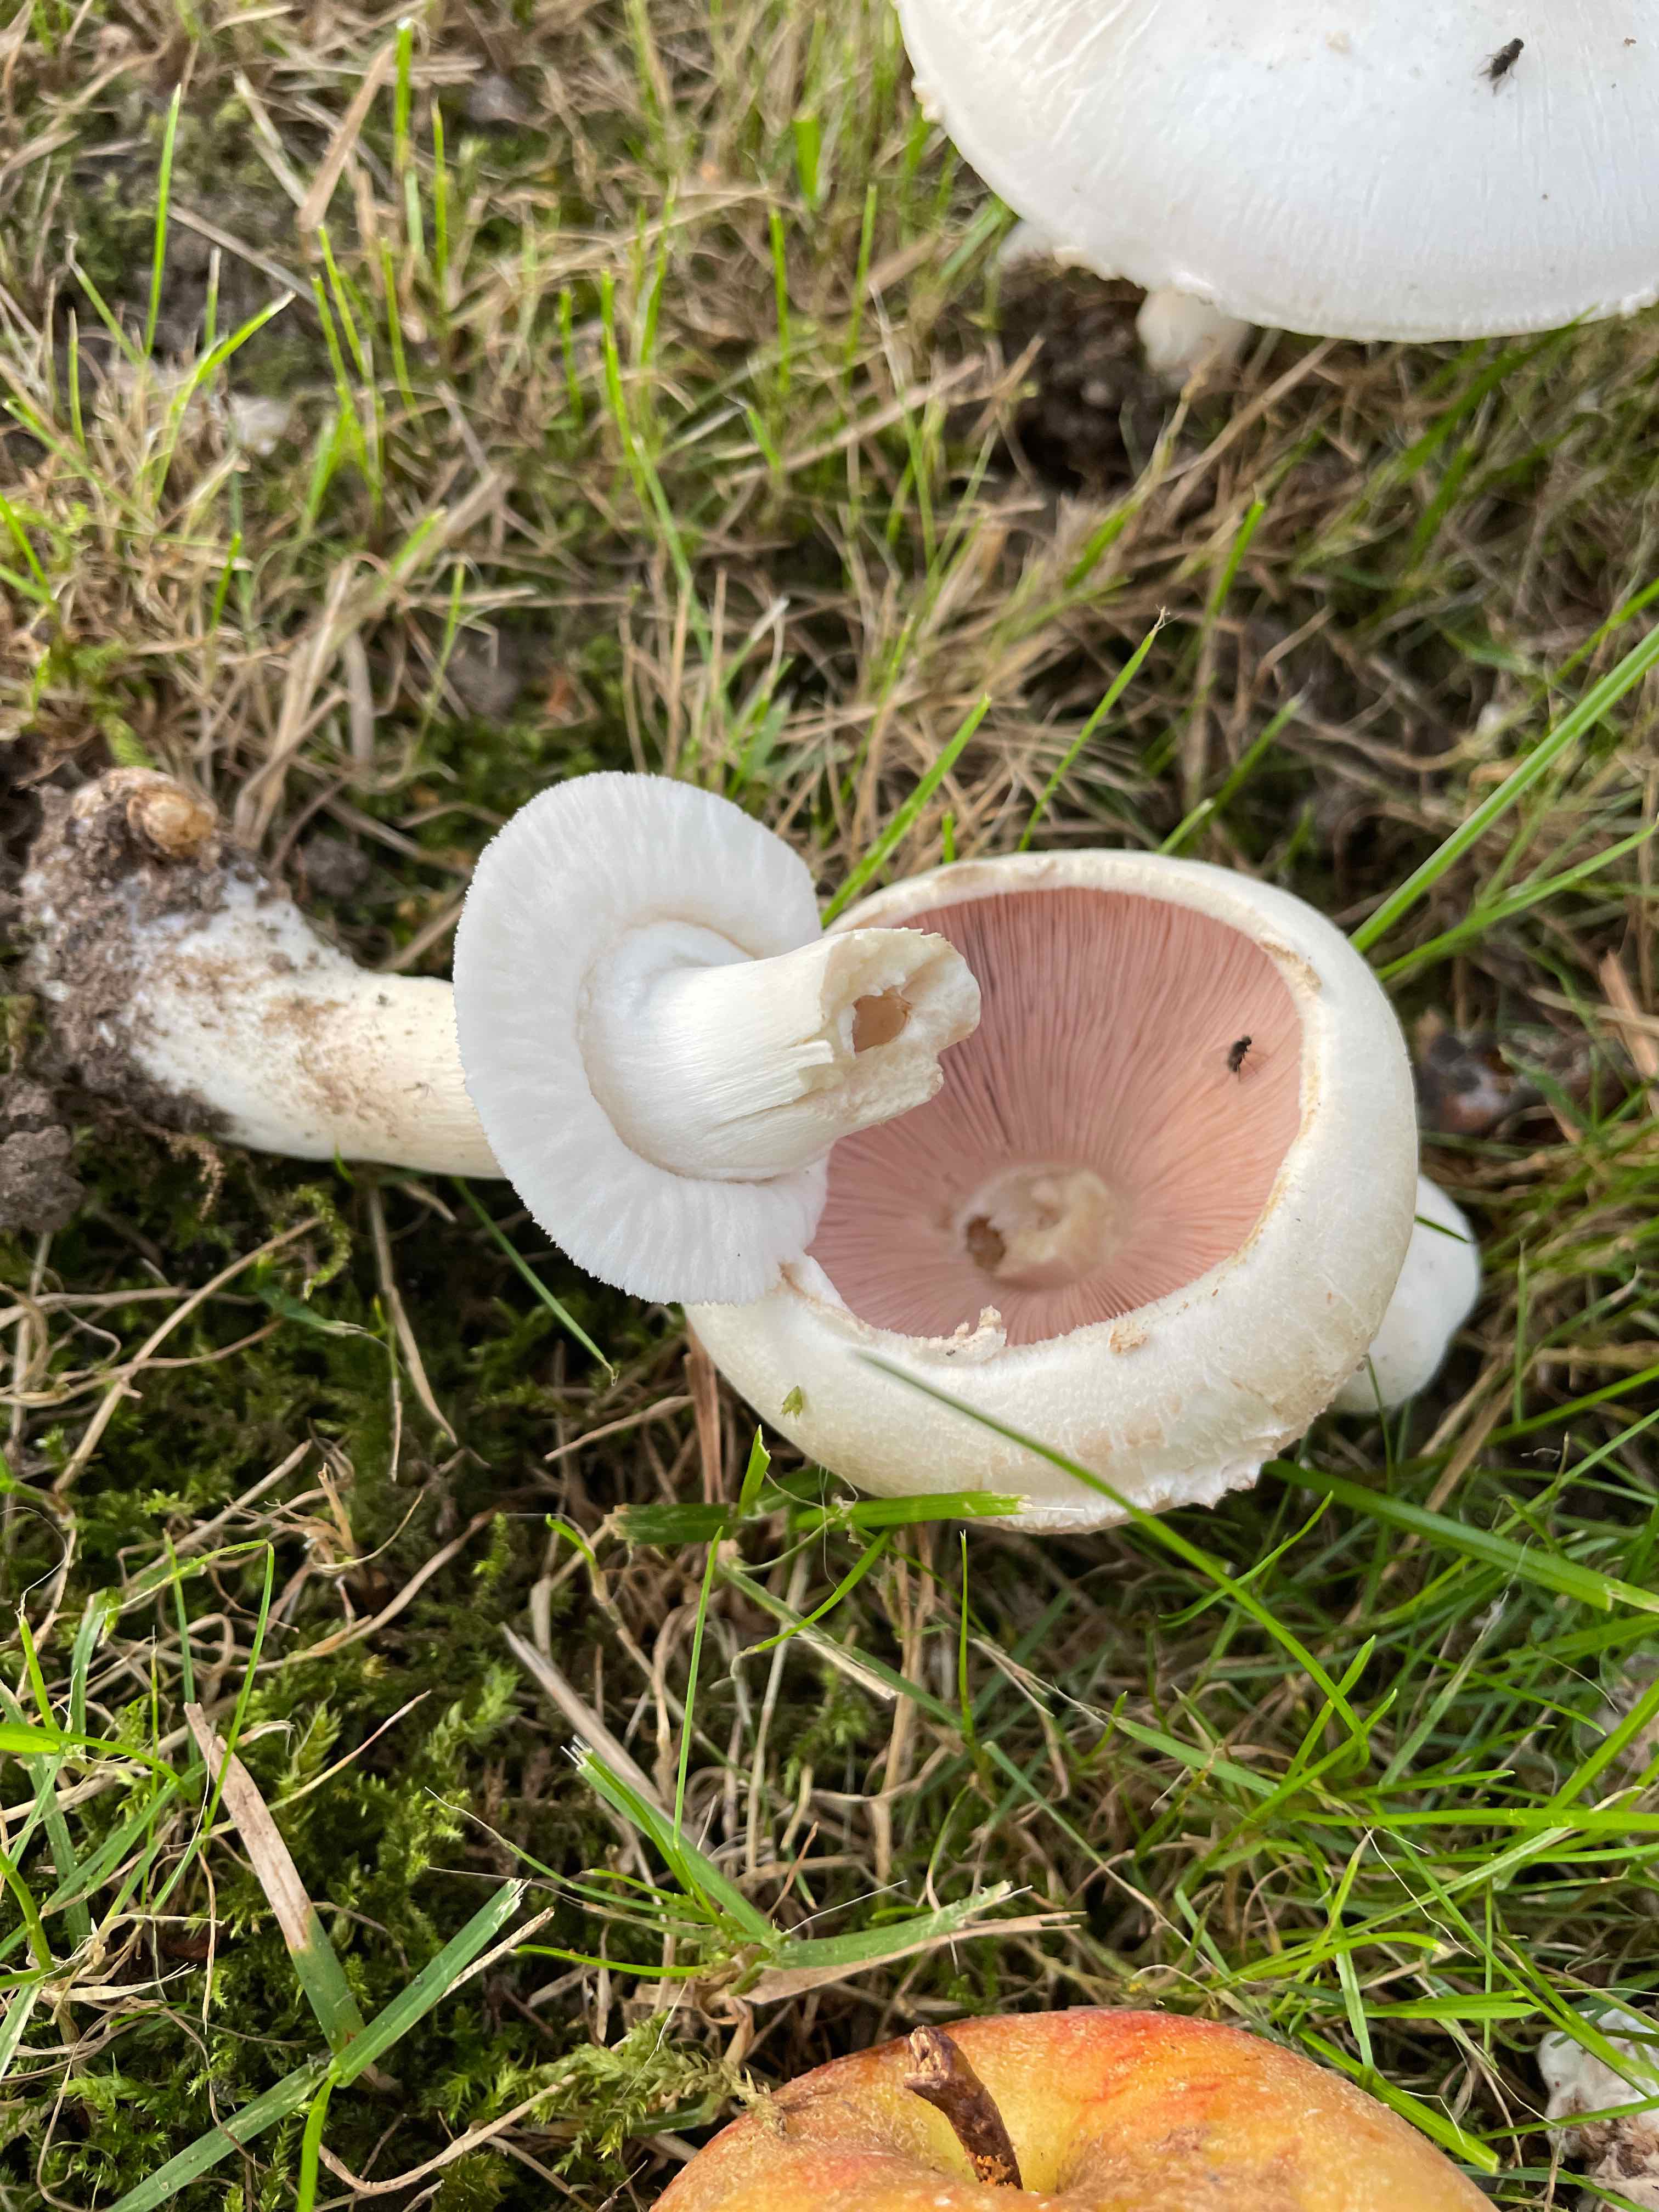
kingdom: Fungi
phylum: Basidiomycota
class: Agaricomycetes
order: Agaricales
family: Agaricaceae
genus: Agaricus
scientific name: Agaricus xanthodermus
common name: karbol-champignon
